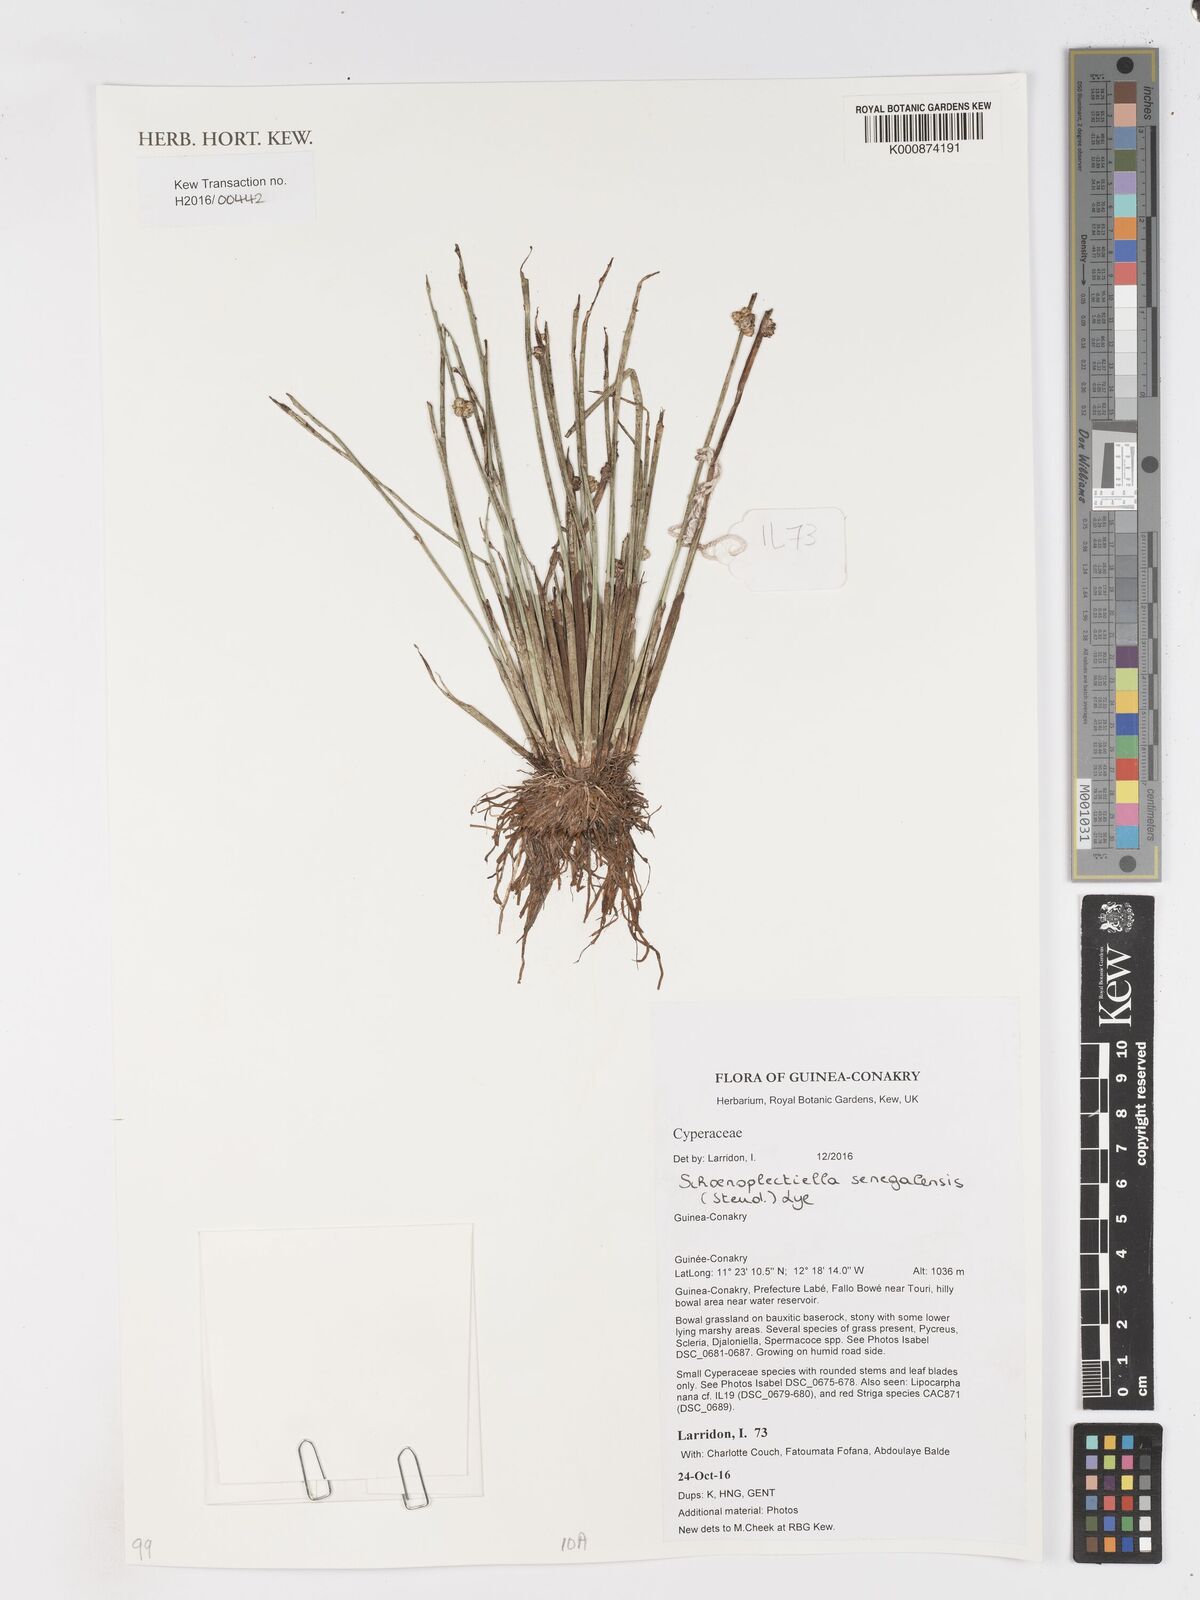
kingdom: Plantae
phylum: Tracheophyta
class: Liliopsida
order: Poales
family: Cyperaceae
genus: Schoenoplectiella
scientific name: Schoenoplectiella senegalensis
